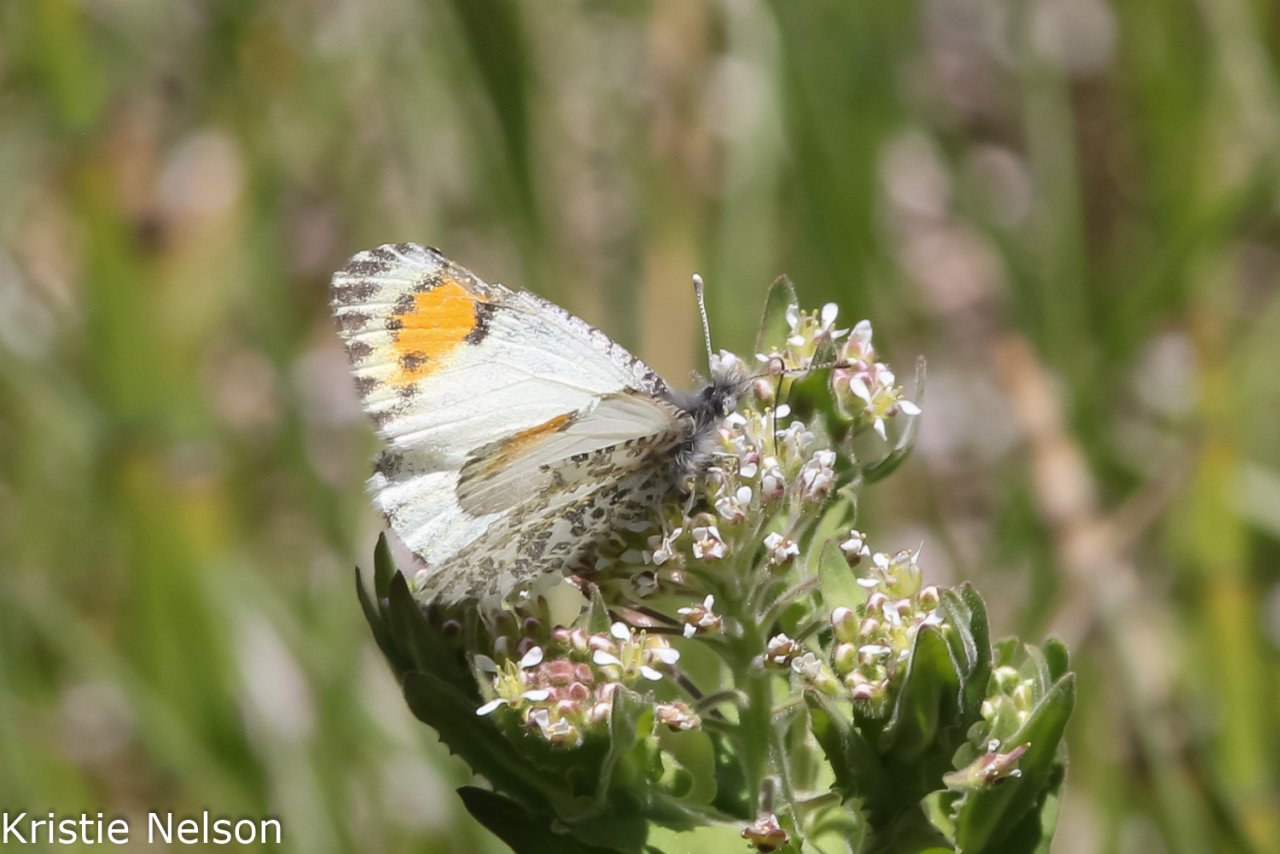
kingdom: Animalia
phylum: Arthropoda
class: Insecta
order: Lepidoptera
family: Pieridae
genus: Anthocharis
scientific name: Anthocharis sara
